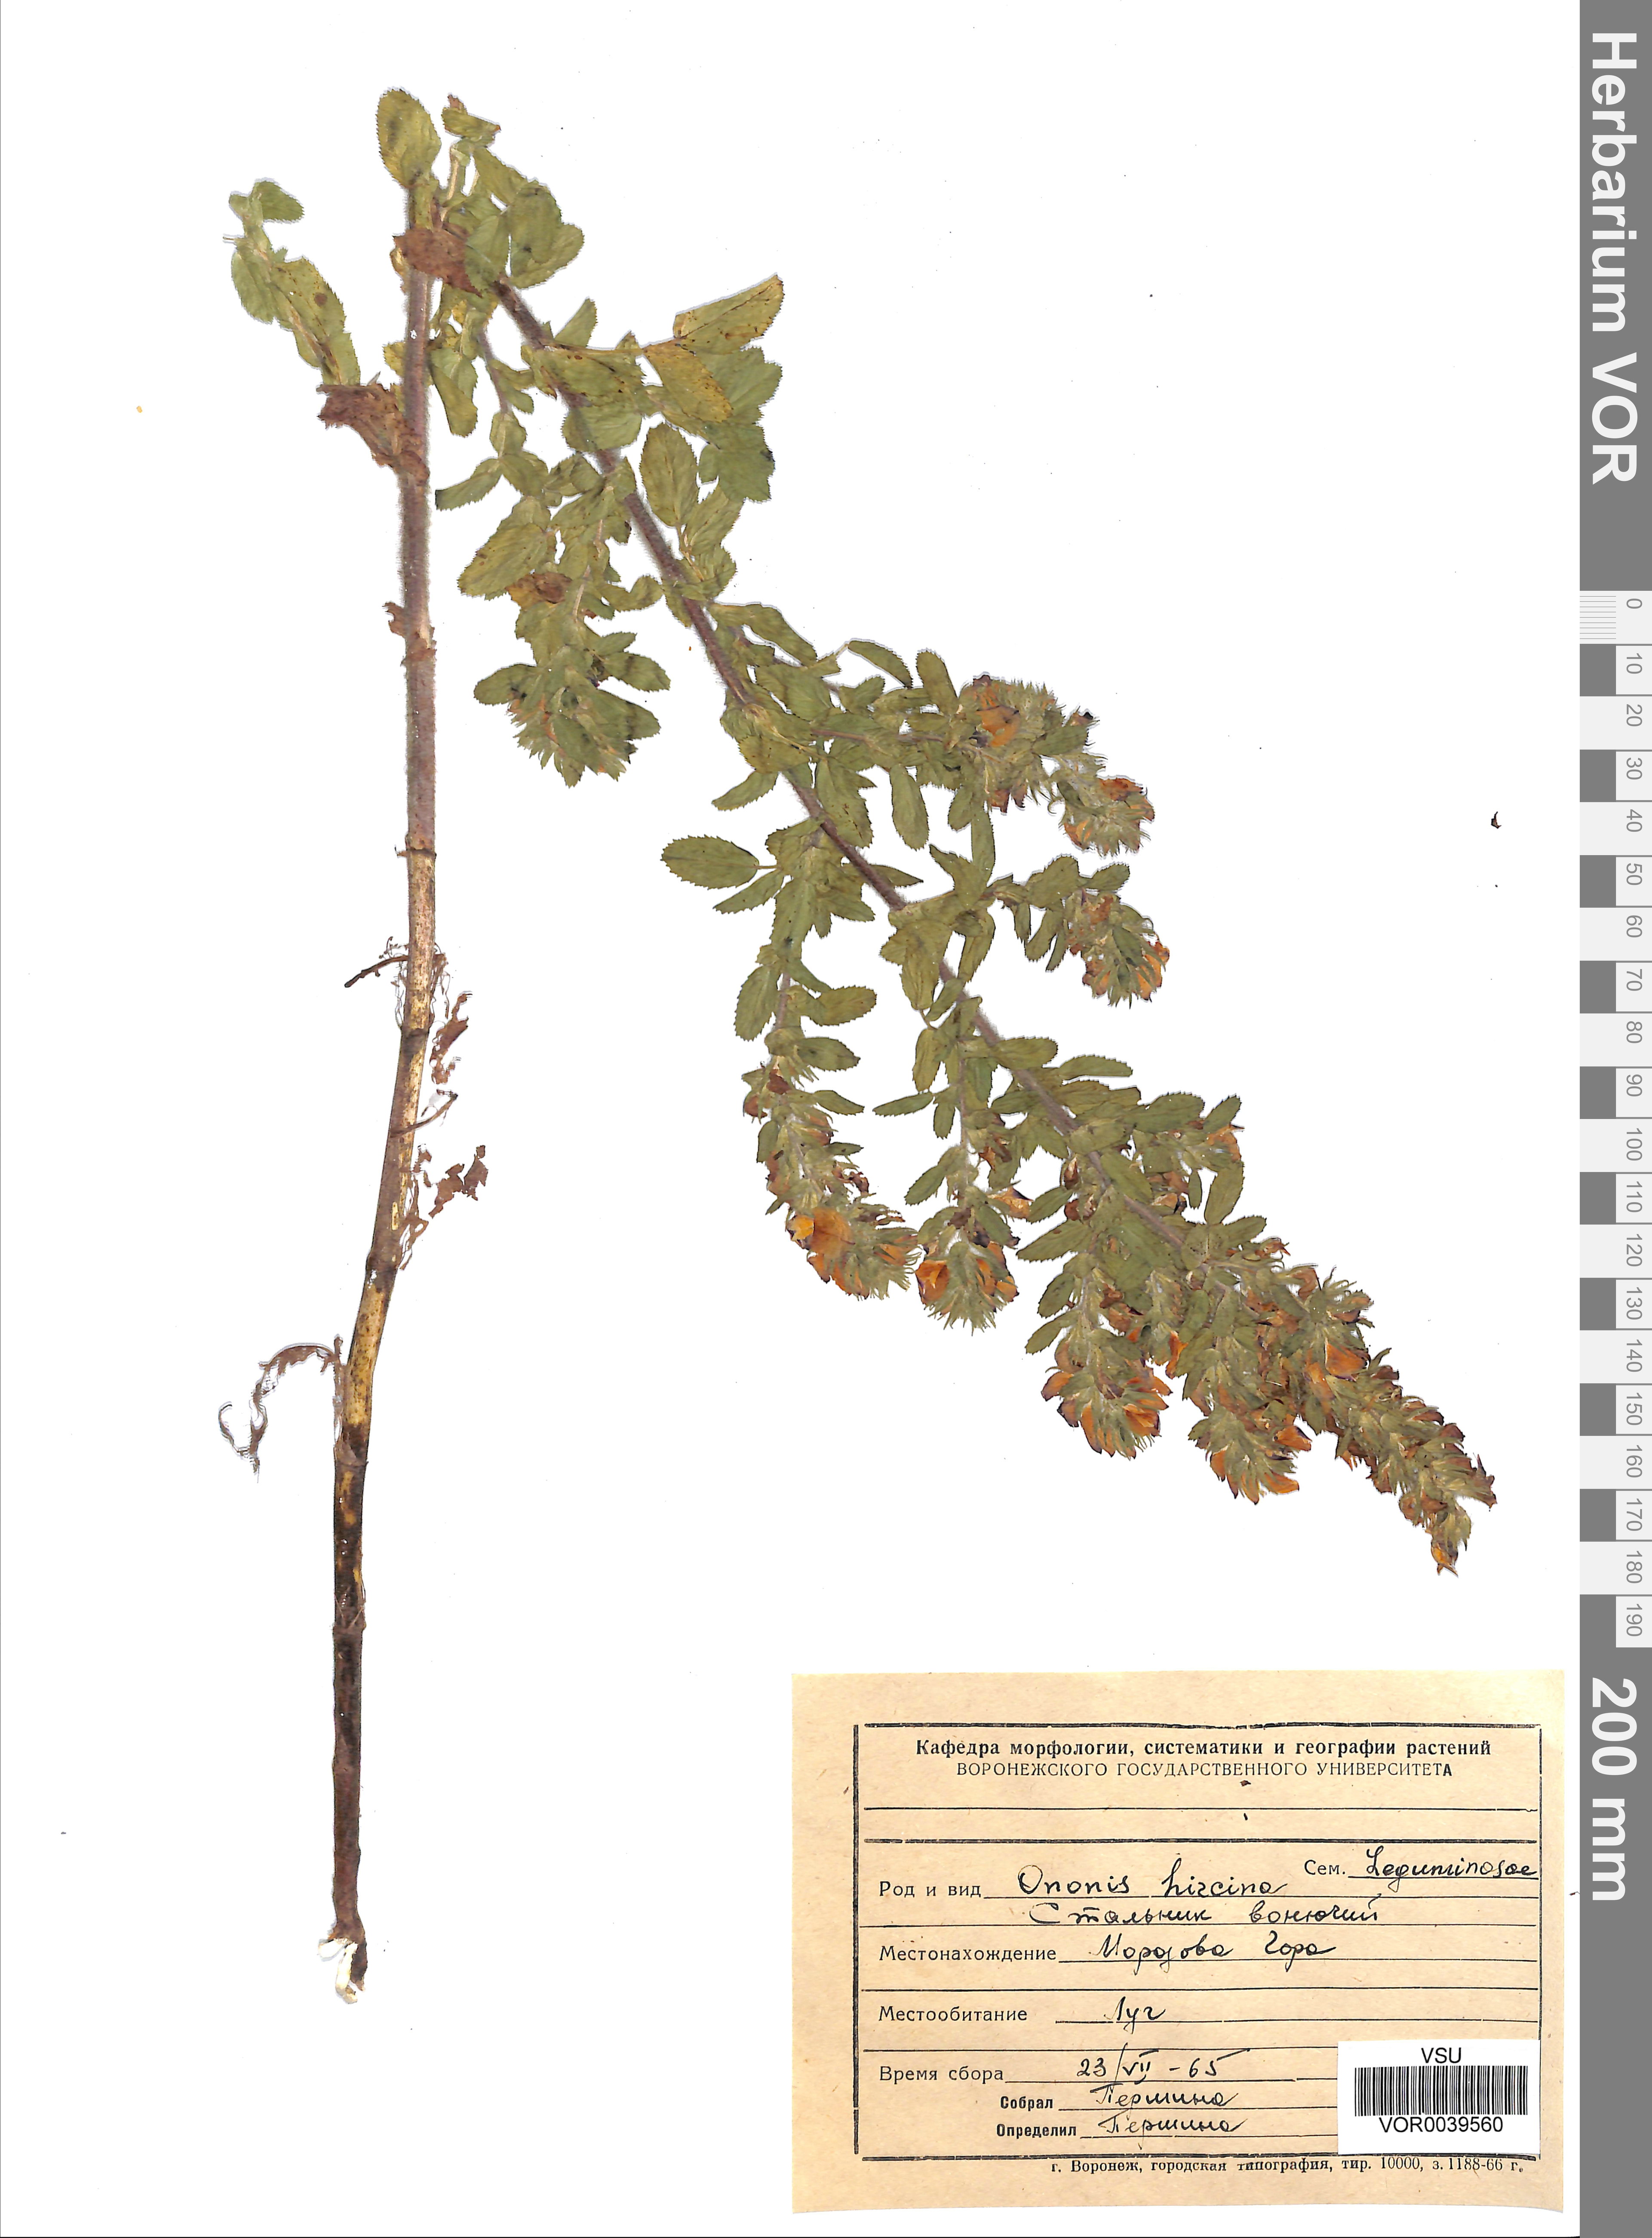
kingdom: Plantae
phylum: Tracheophyta
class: Magnoliopsida
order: Fabales
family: Fabaceae
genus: Ononis
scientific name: Ononis arvensis
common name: Field restharrow
